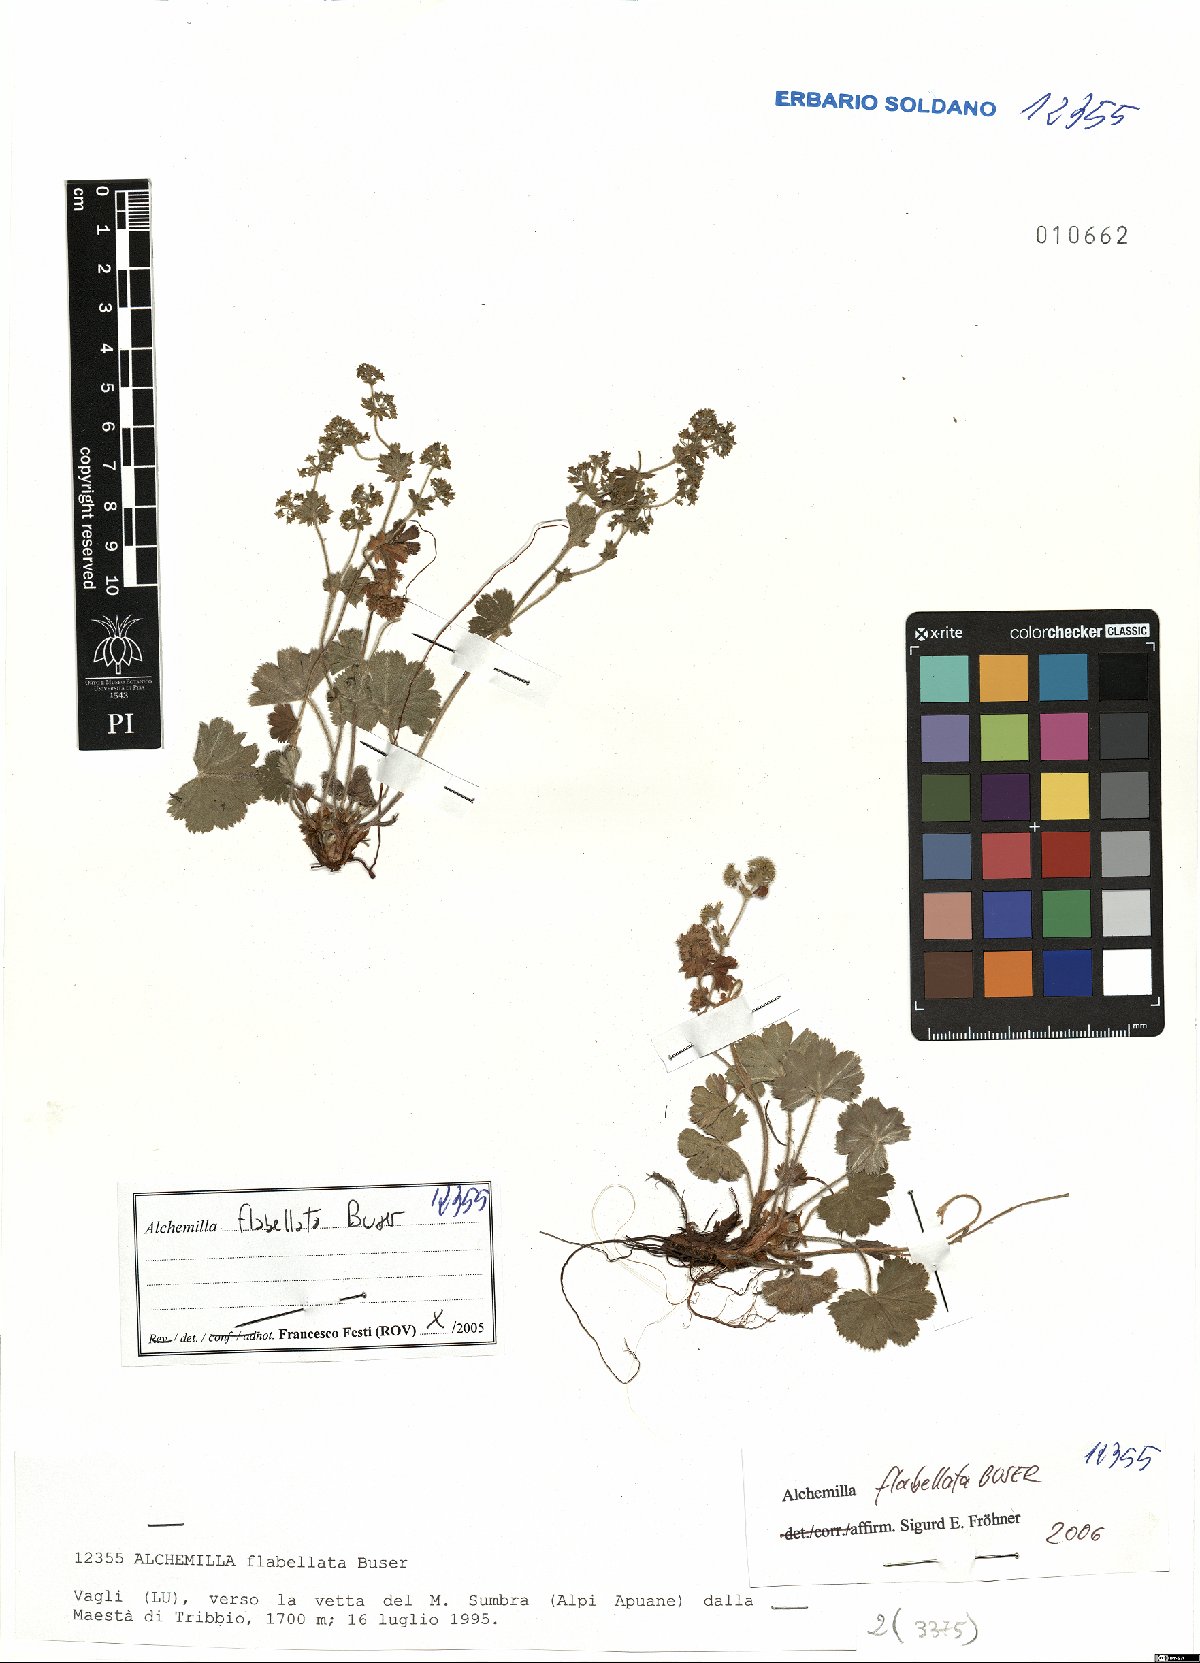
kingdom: Plantae
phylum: Tracheophyta
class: Magnoliopsida
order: Rosales
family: Rosaceae
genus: Alchemilla
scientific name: Alchemilla flabellata
